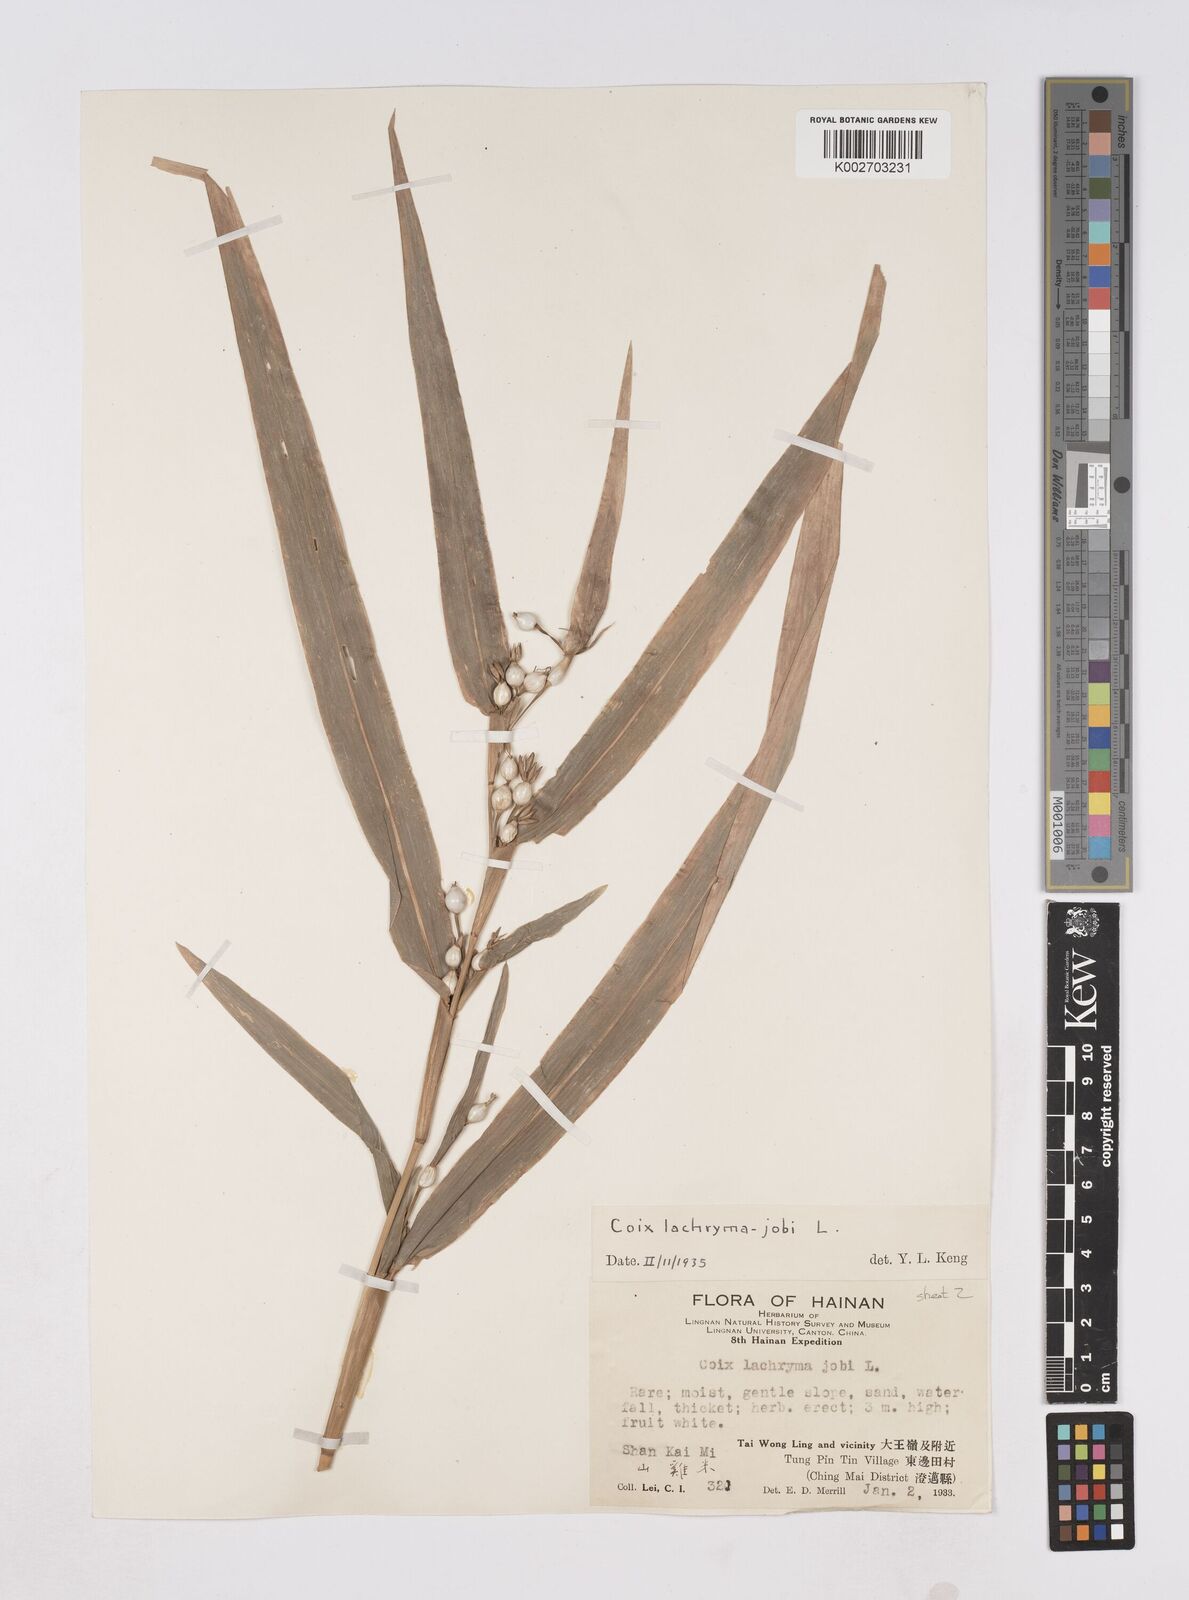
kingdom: Plantae
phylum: Tracheophyta
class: Liliopsida
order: Poales
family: Poaceae
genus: Coix
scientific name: Coix lacryma-jobi
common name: Job's tears
